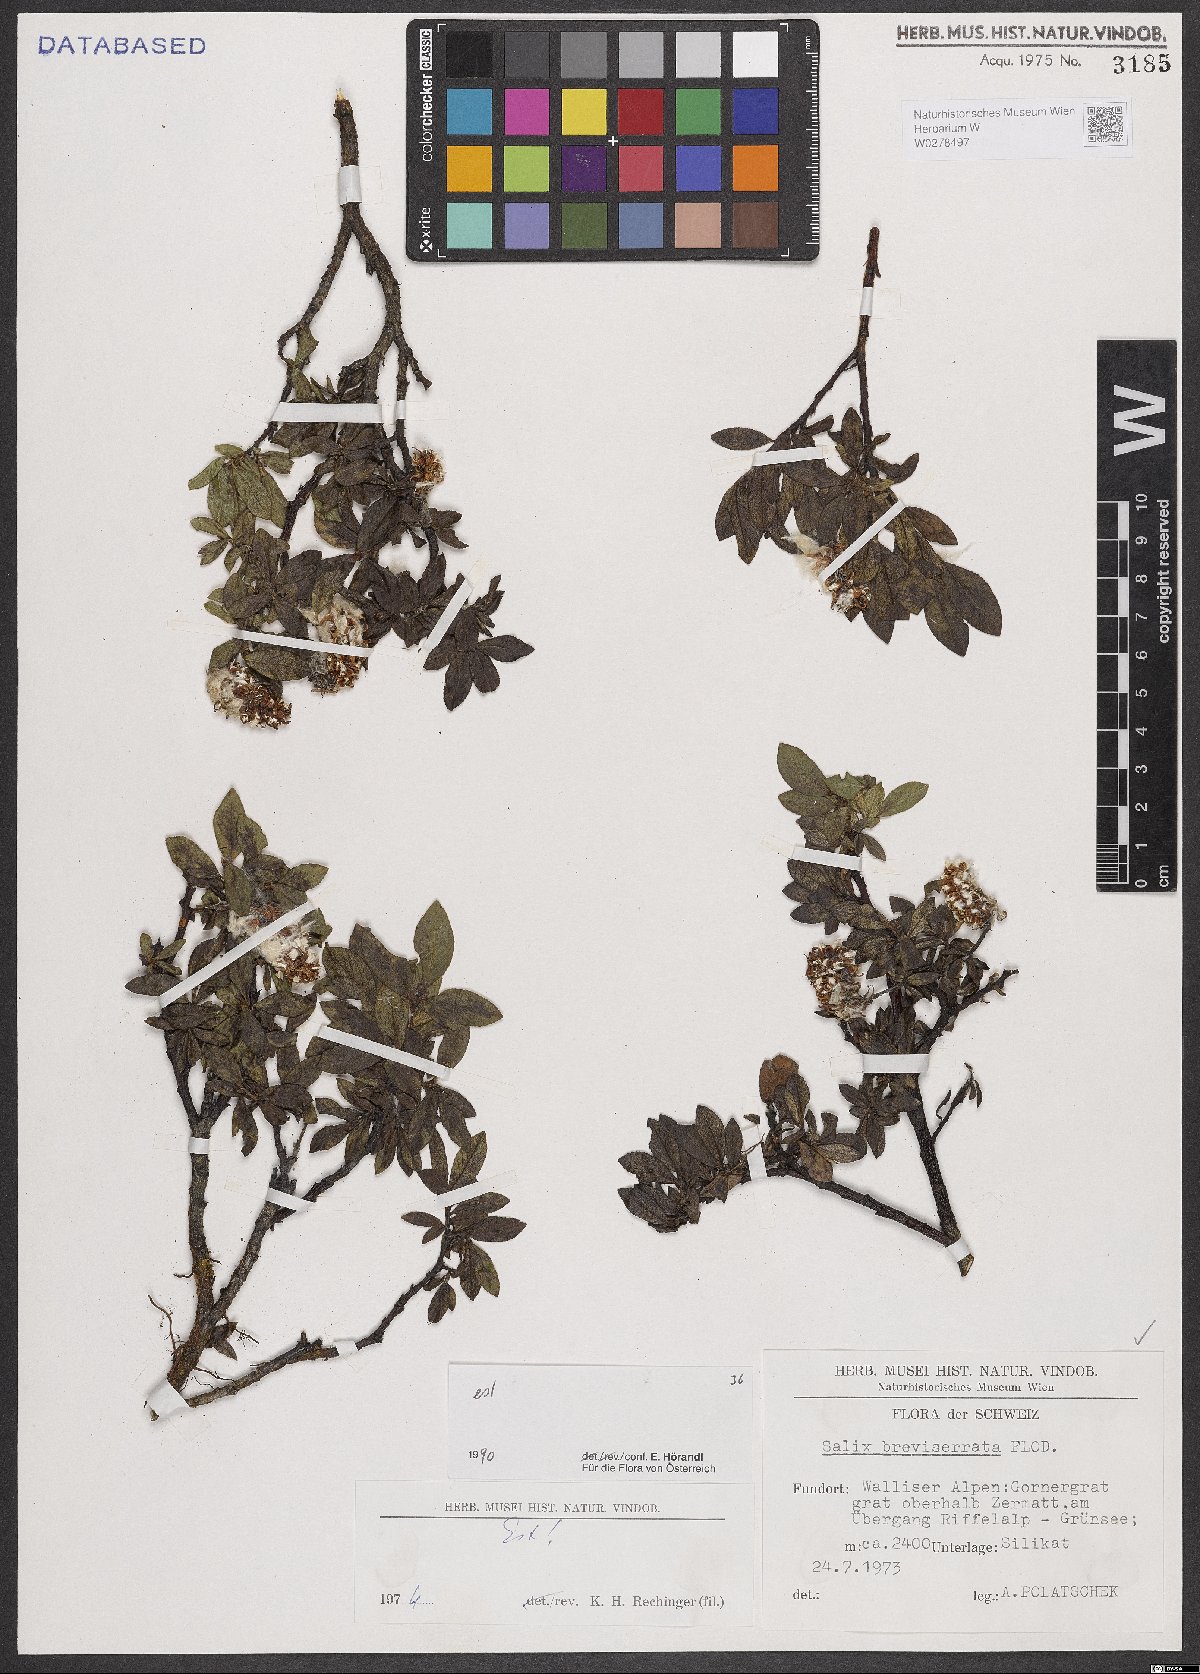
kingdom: Plantae
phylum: Tracheophyta
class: Magnoliopsida
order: Malpighiales
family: Salicaceae
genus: Salix
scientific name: Salix breviserrata
